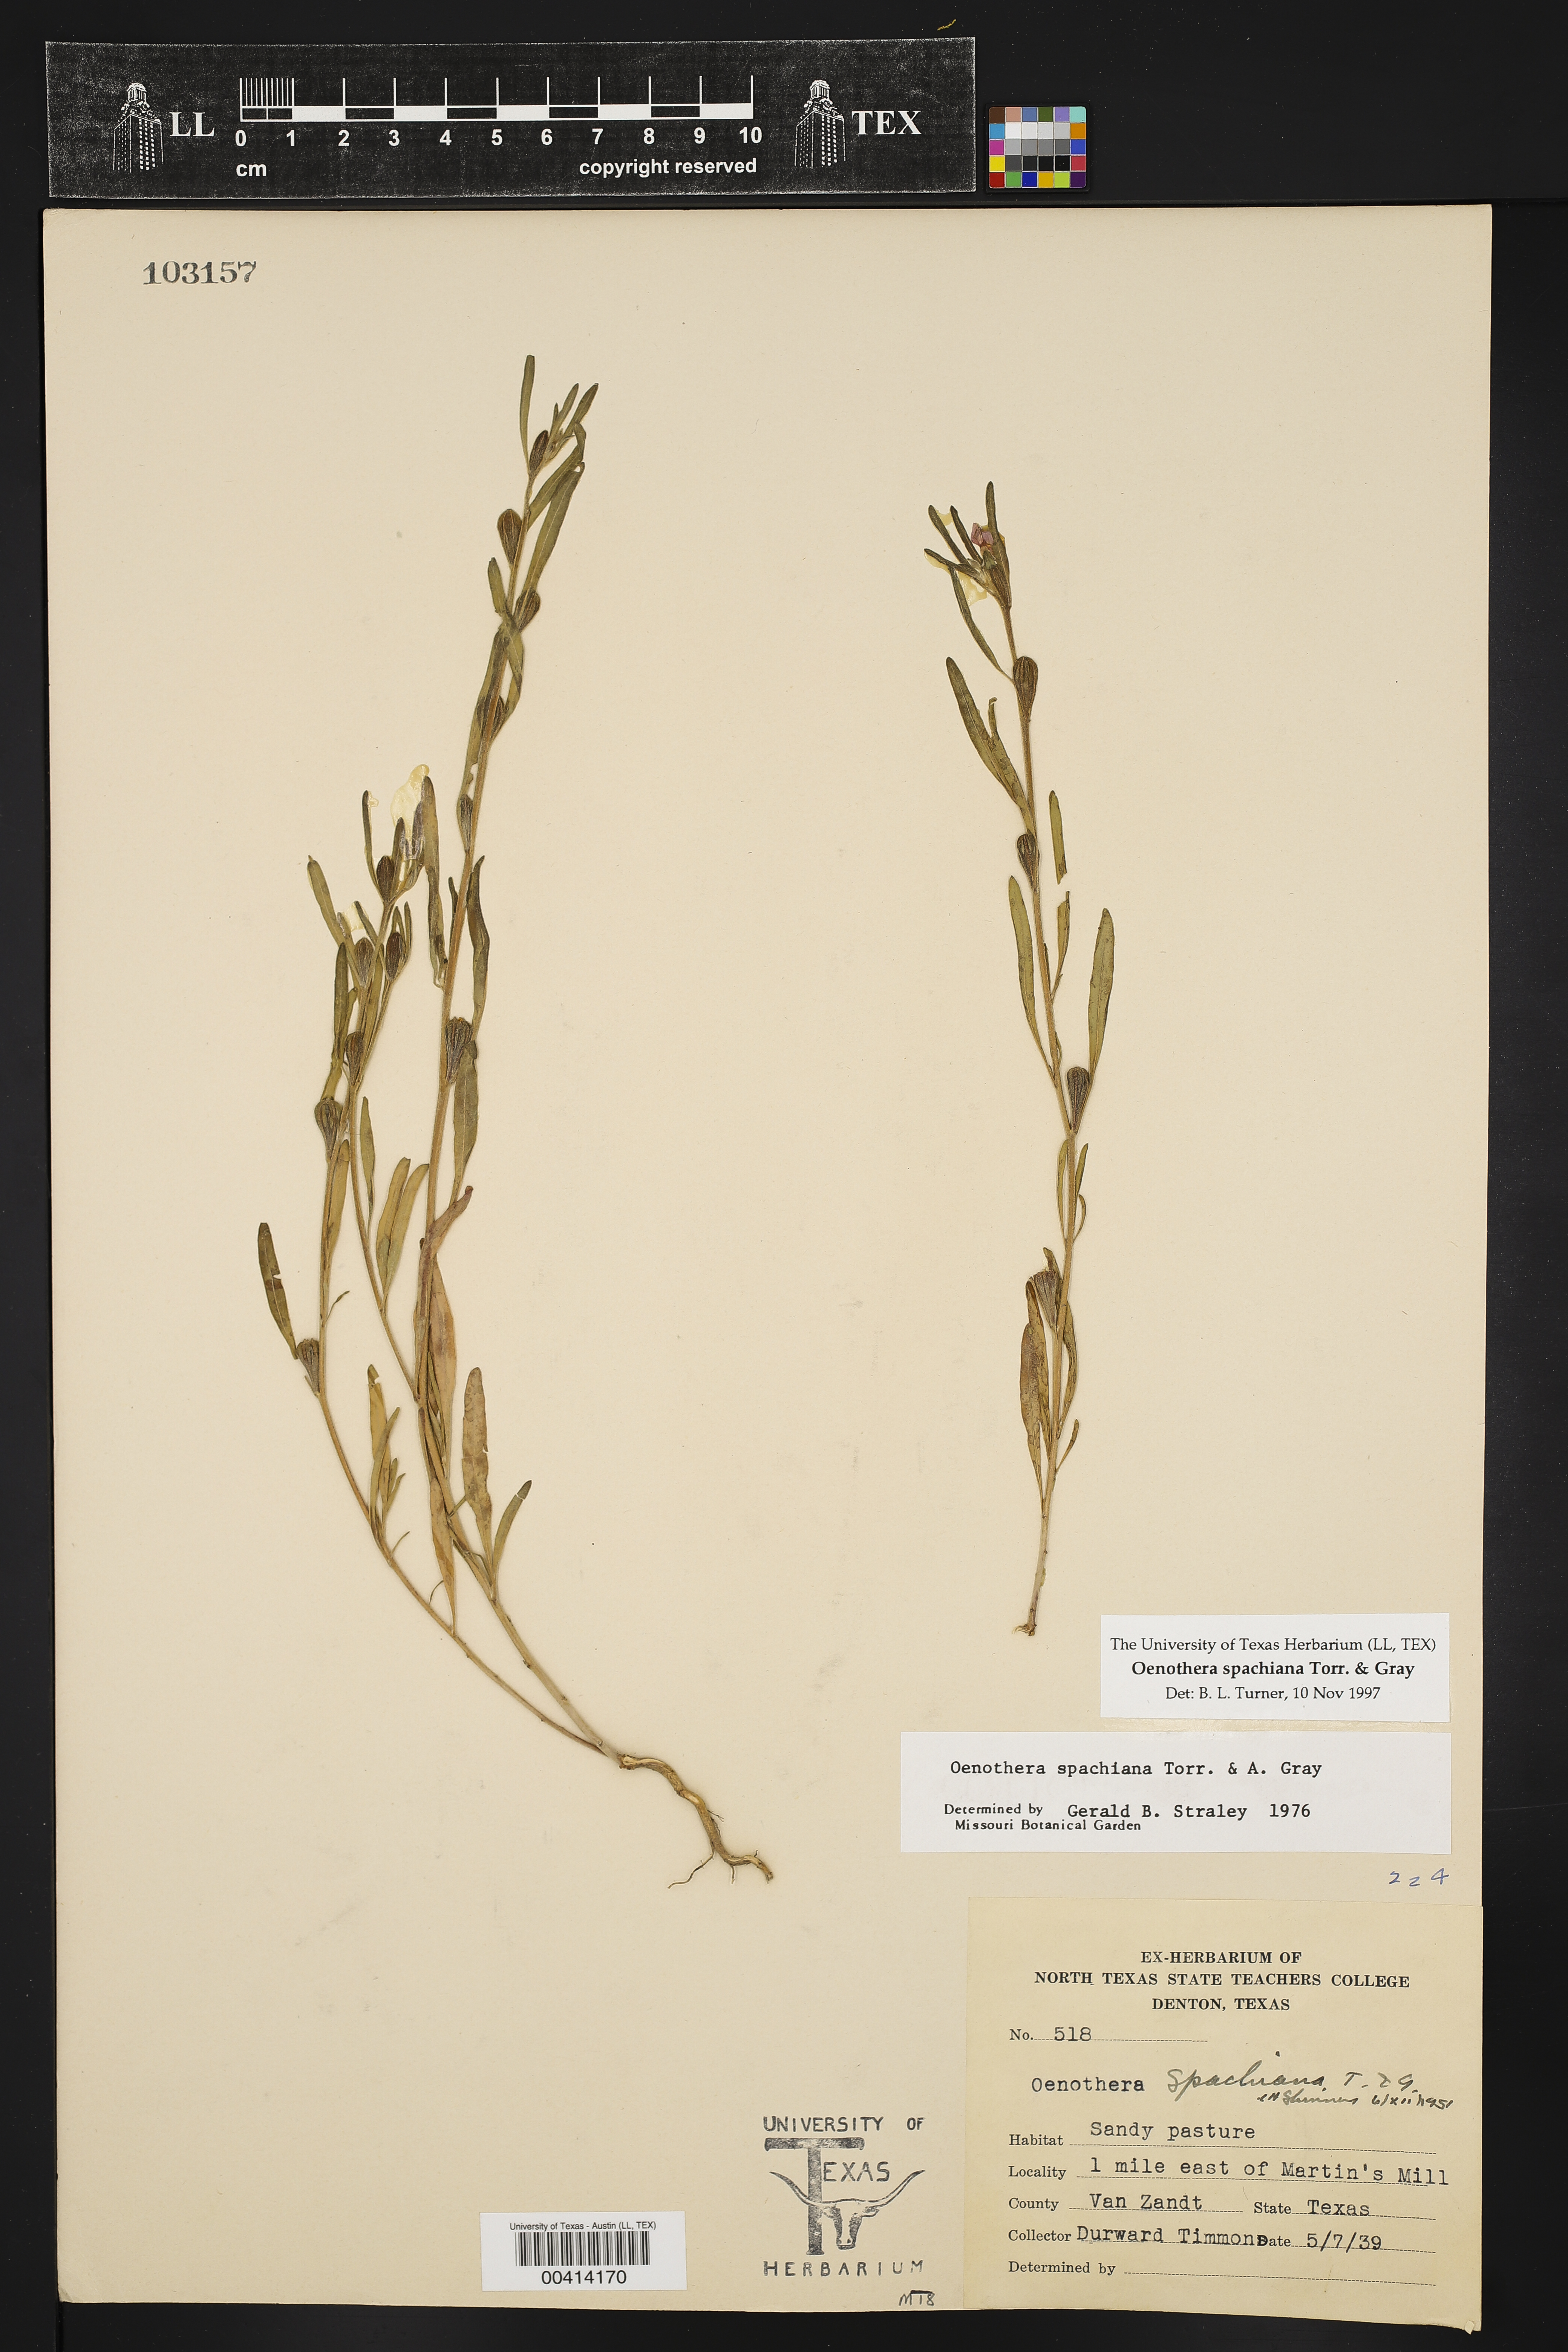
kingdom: Plantae
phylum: Tracheophyta
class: Magnoliopsida
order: Myrtales
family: Onagraceae
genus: Oenothera
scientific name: Oenothera spachiana
